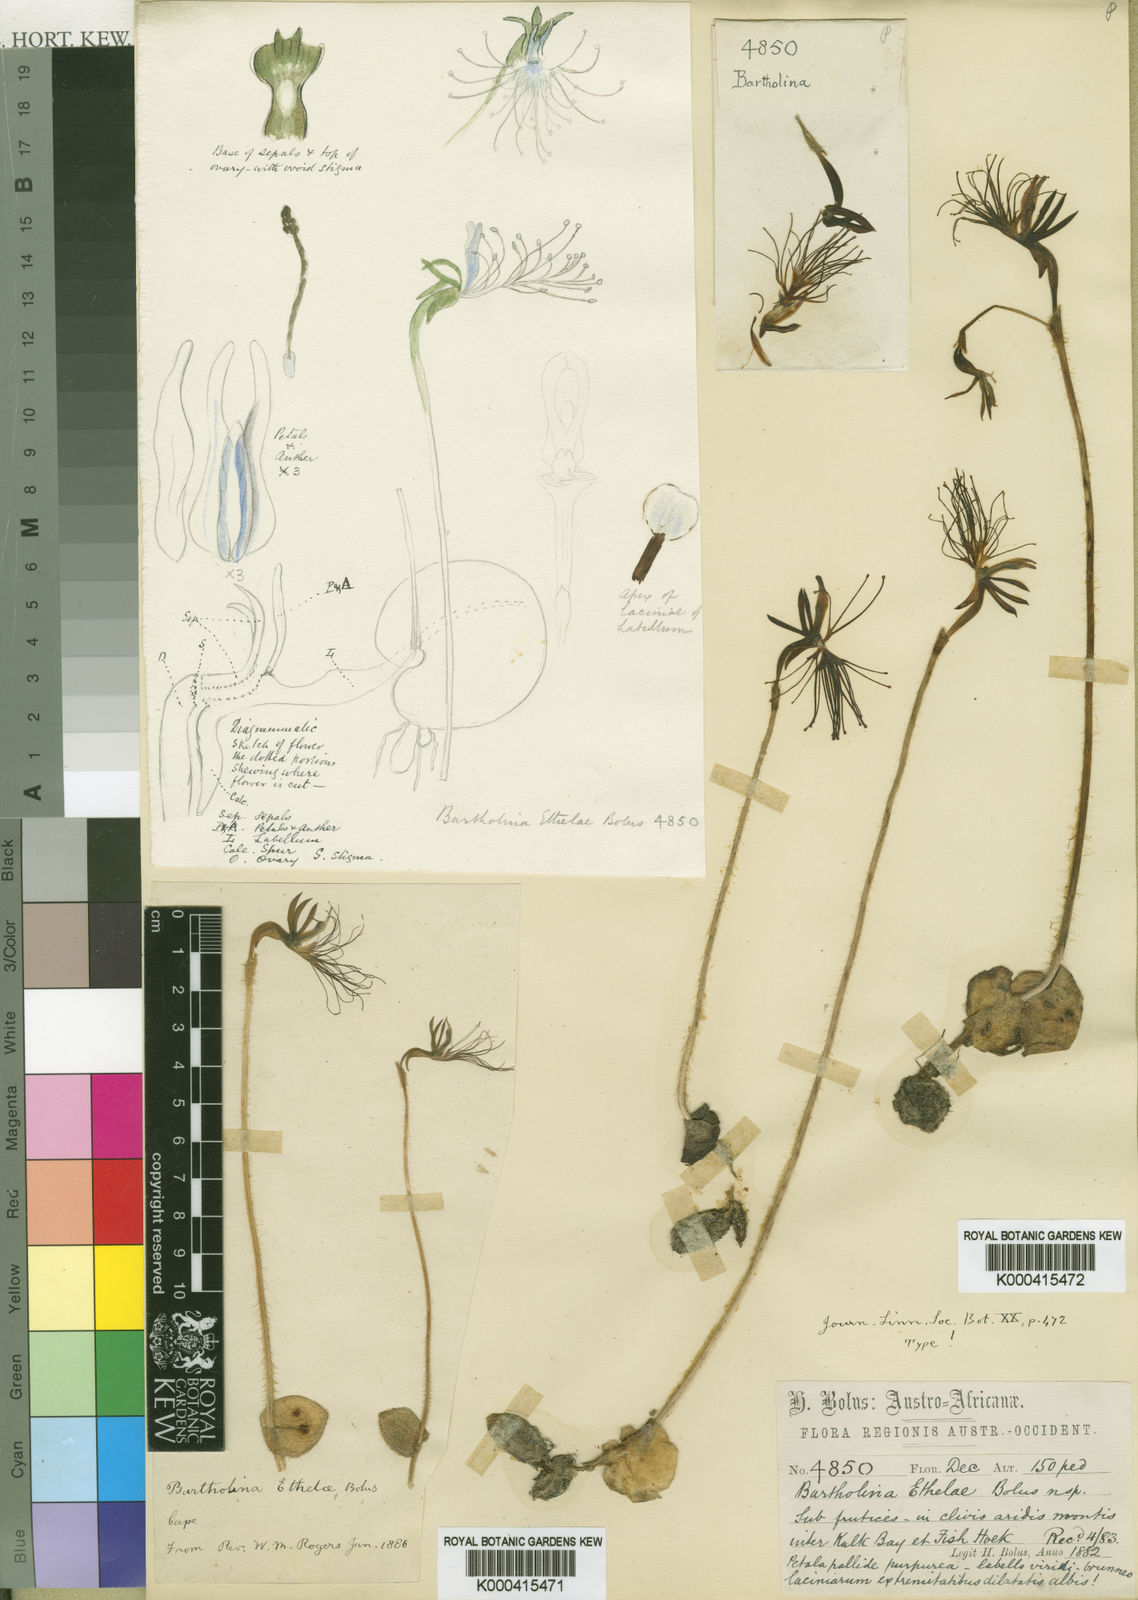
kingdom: Plantae
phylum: Tracheophyta
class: Liliopsida
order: Asparagales
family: Orchidaceae
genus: Holothrix
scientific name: Holothrix etheliae
